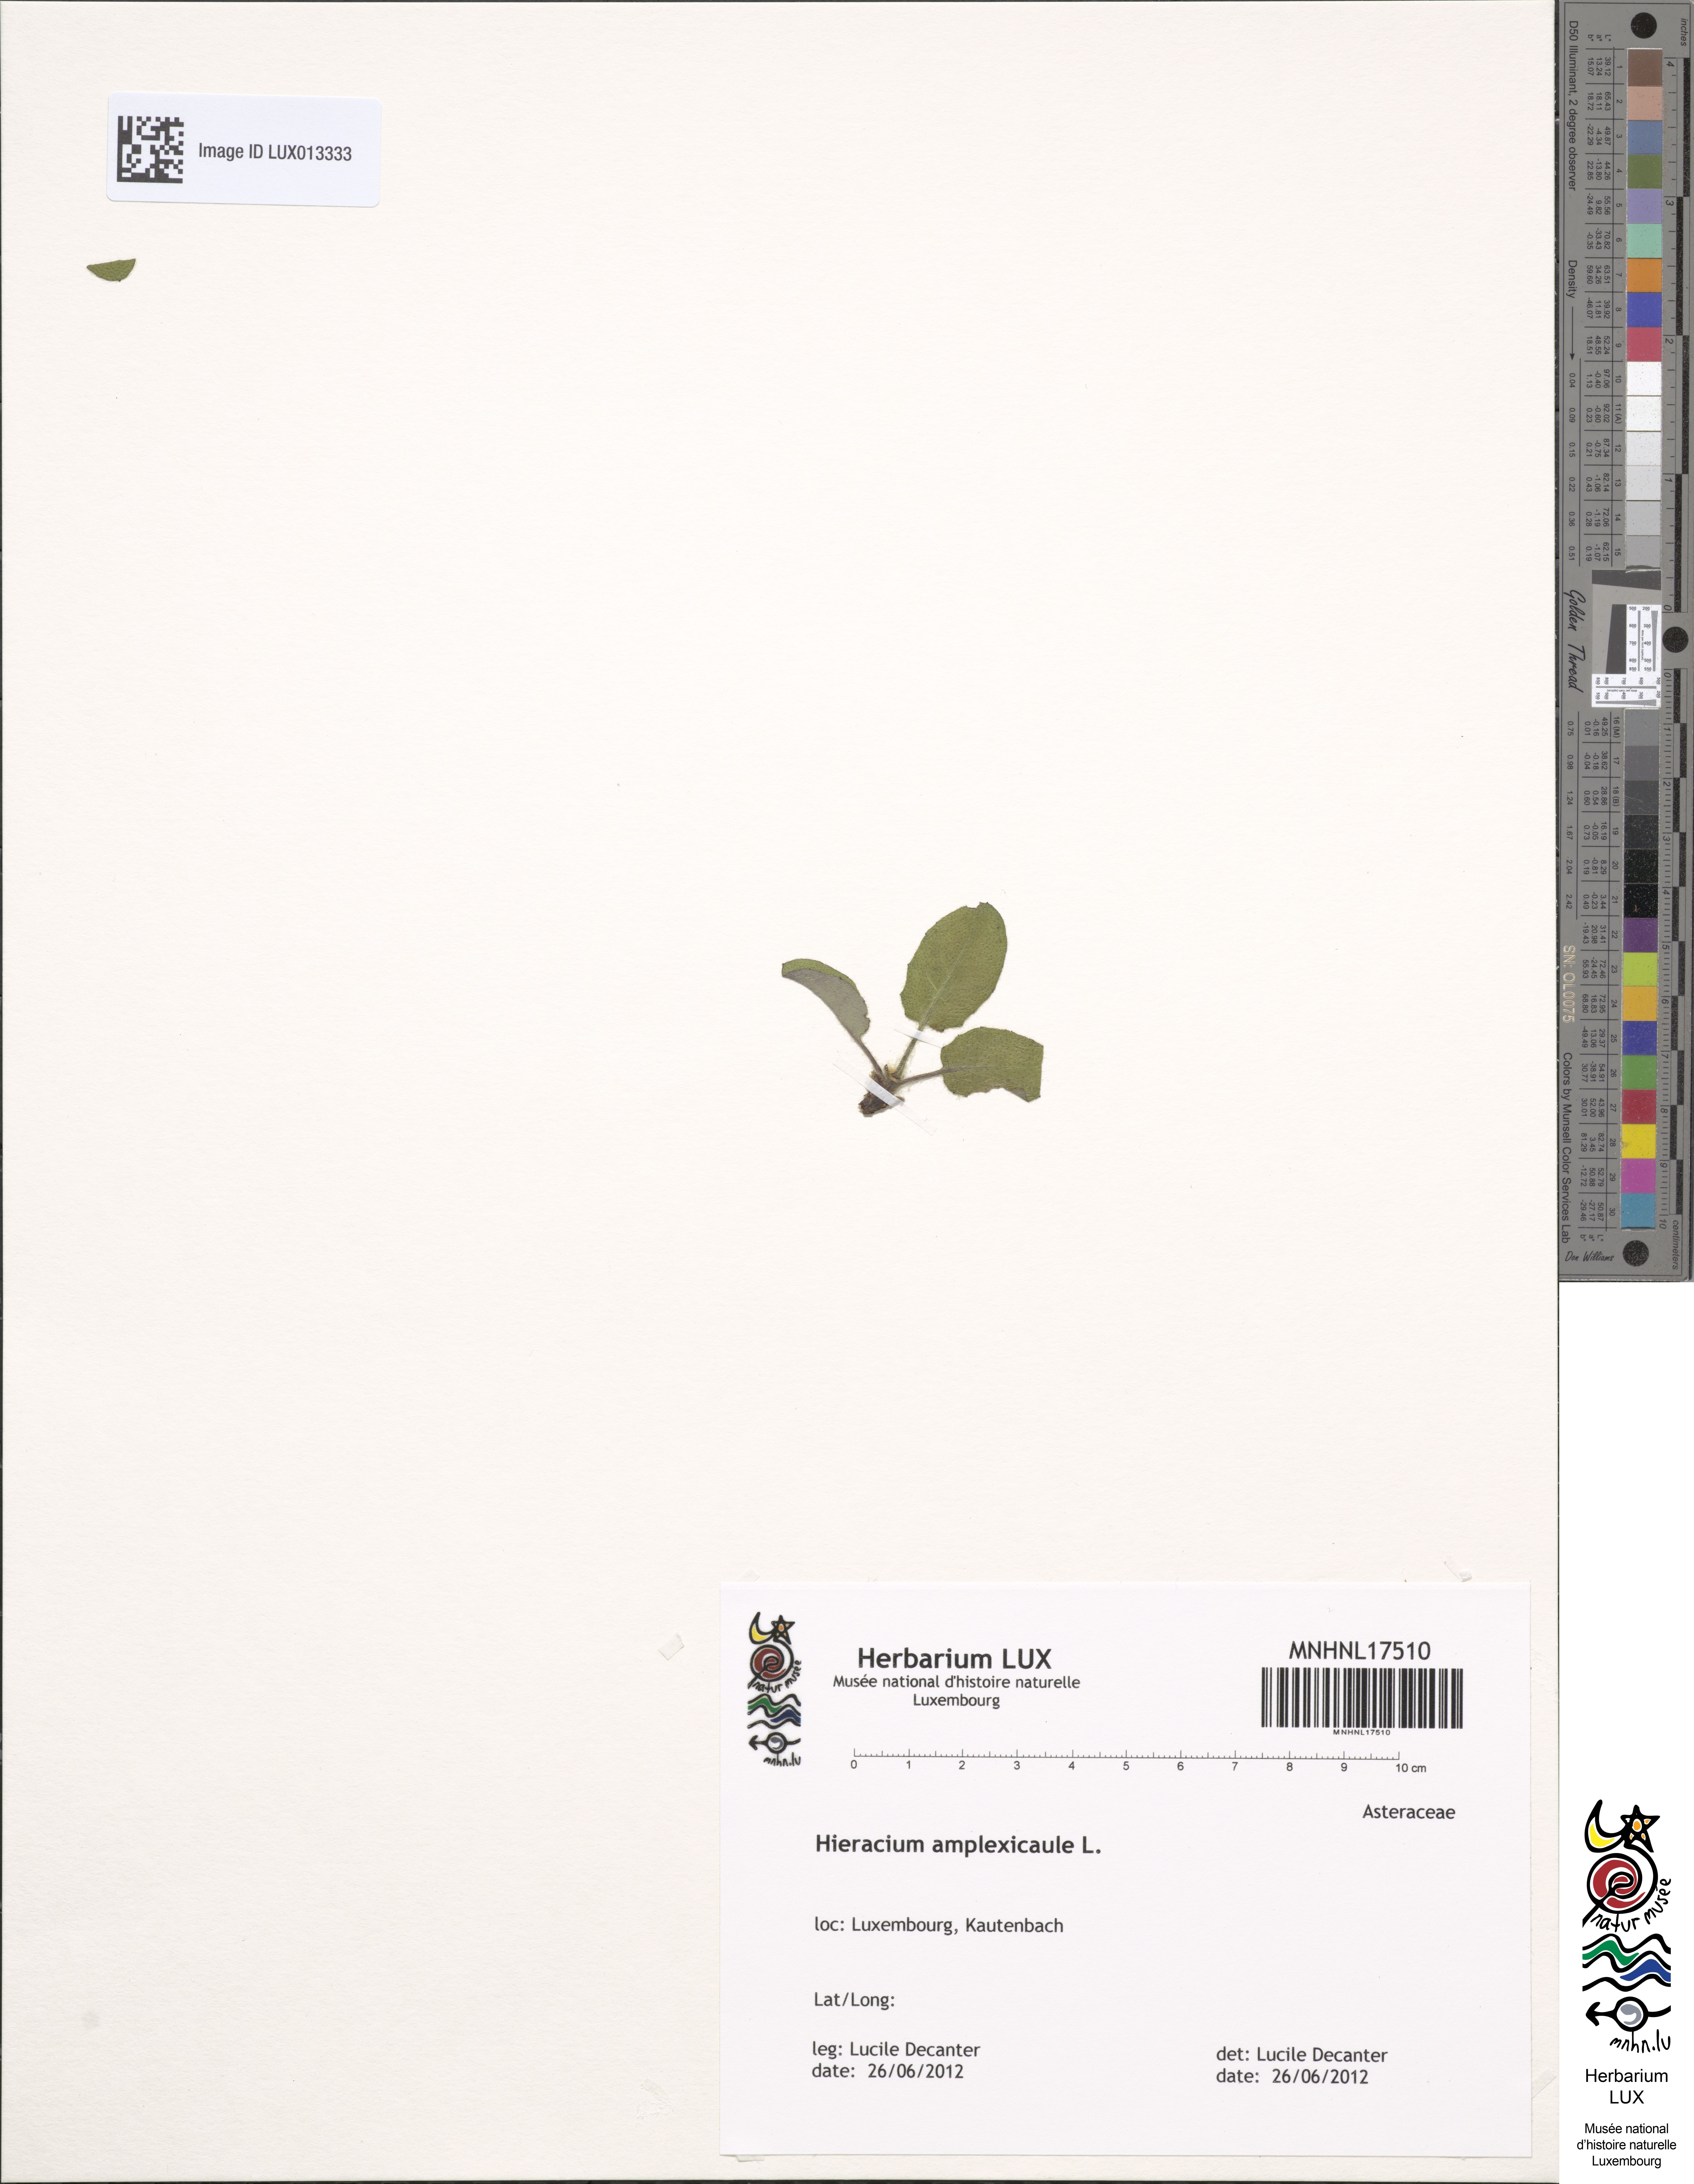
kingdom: Plantae
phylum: Tracheophyta
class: Magnoliopsida
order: Asterales
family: Asteraceae
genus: Hieracium
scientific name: Hieracium amplexicaule
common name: Sticky hawkweed
